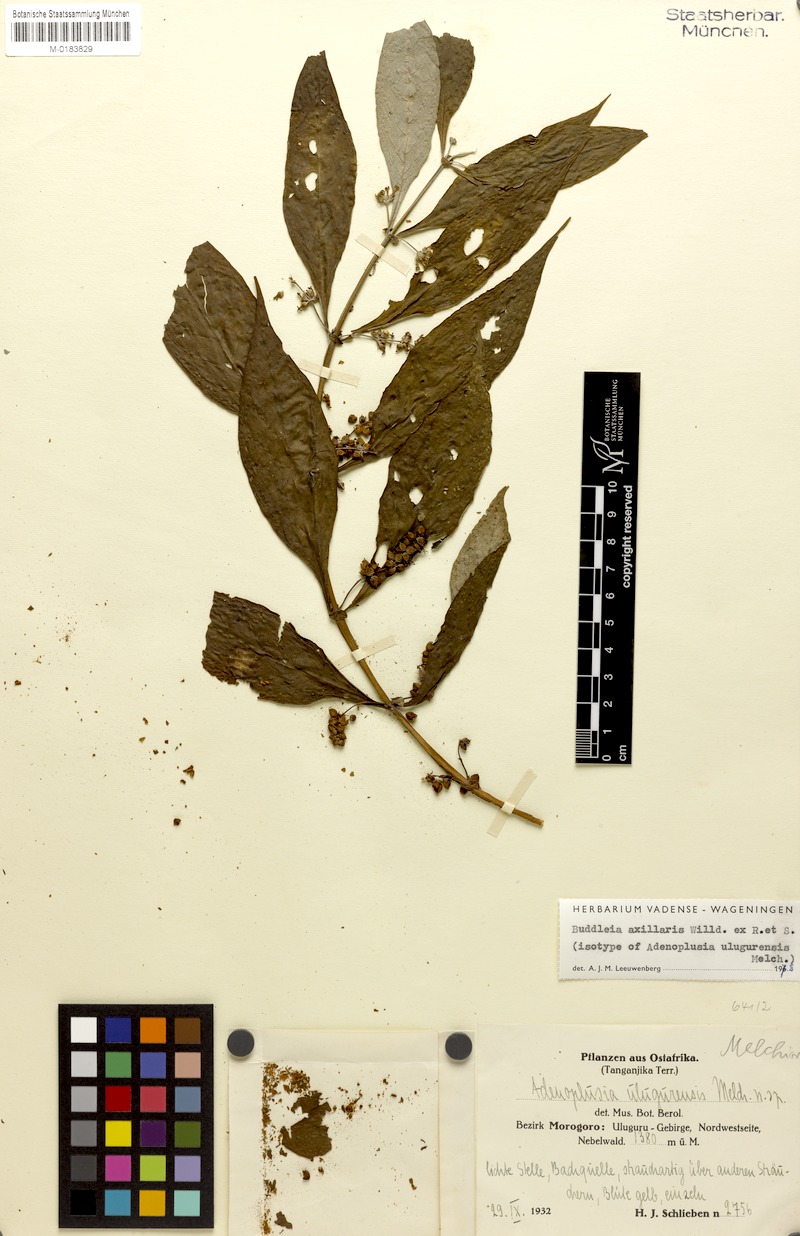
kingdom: Plantae
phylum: Tracheophyta
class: Magnoliopsida
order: Lamiales
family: Scrophulariaceae
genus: Buddleja
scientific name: Buddleja axillaris
